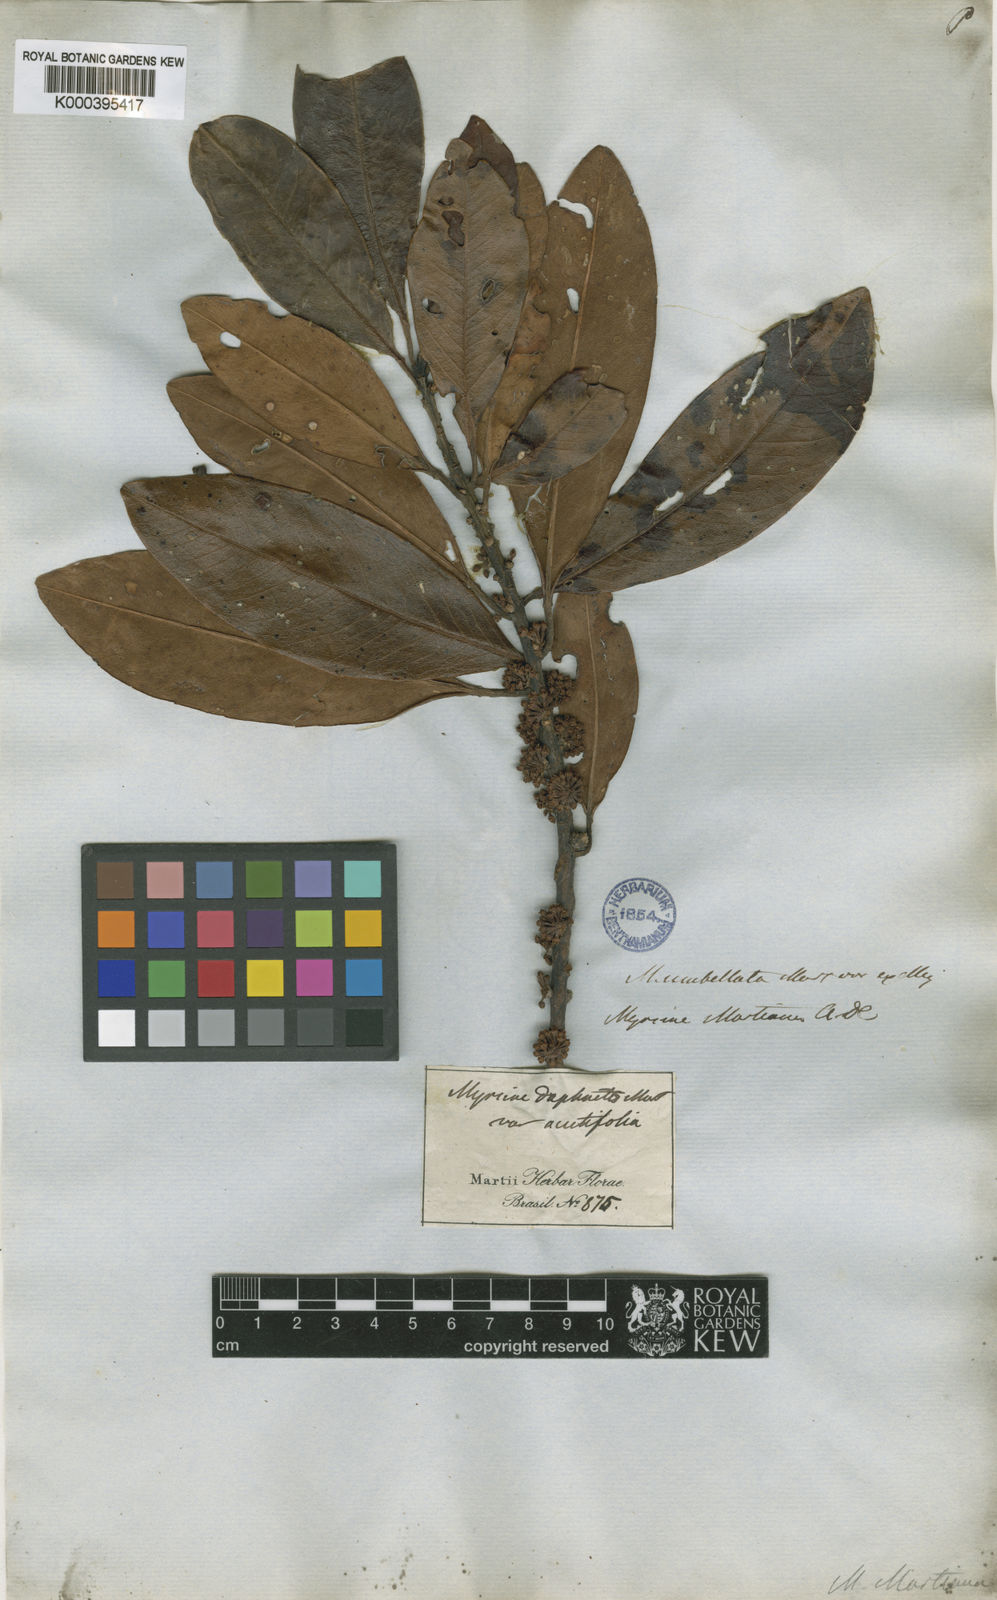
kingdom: Plantae
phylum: Tracheophyta
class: Magnoliopsida
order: Ericales
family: Primulaceae
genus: Myrsine
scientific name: Myrsine umbellata
